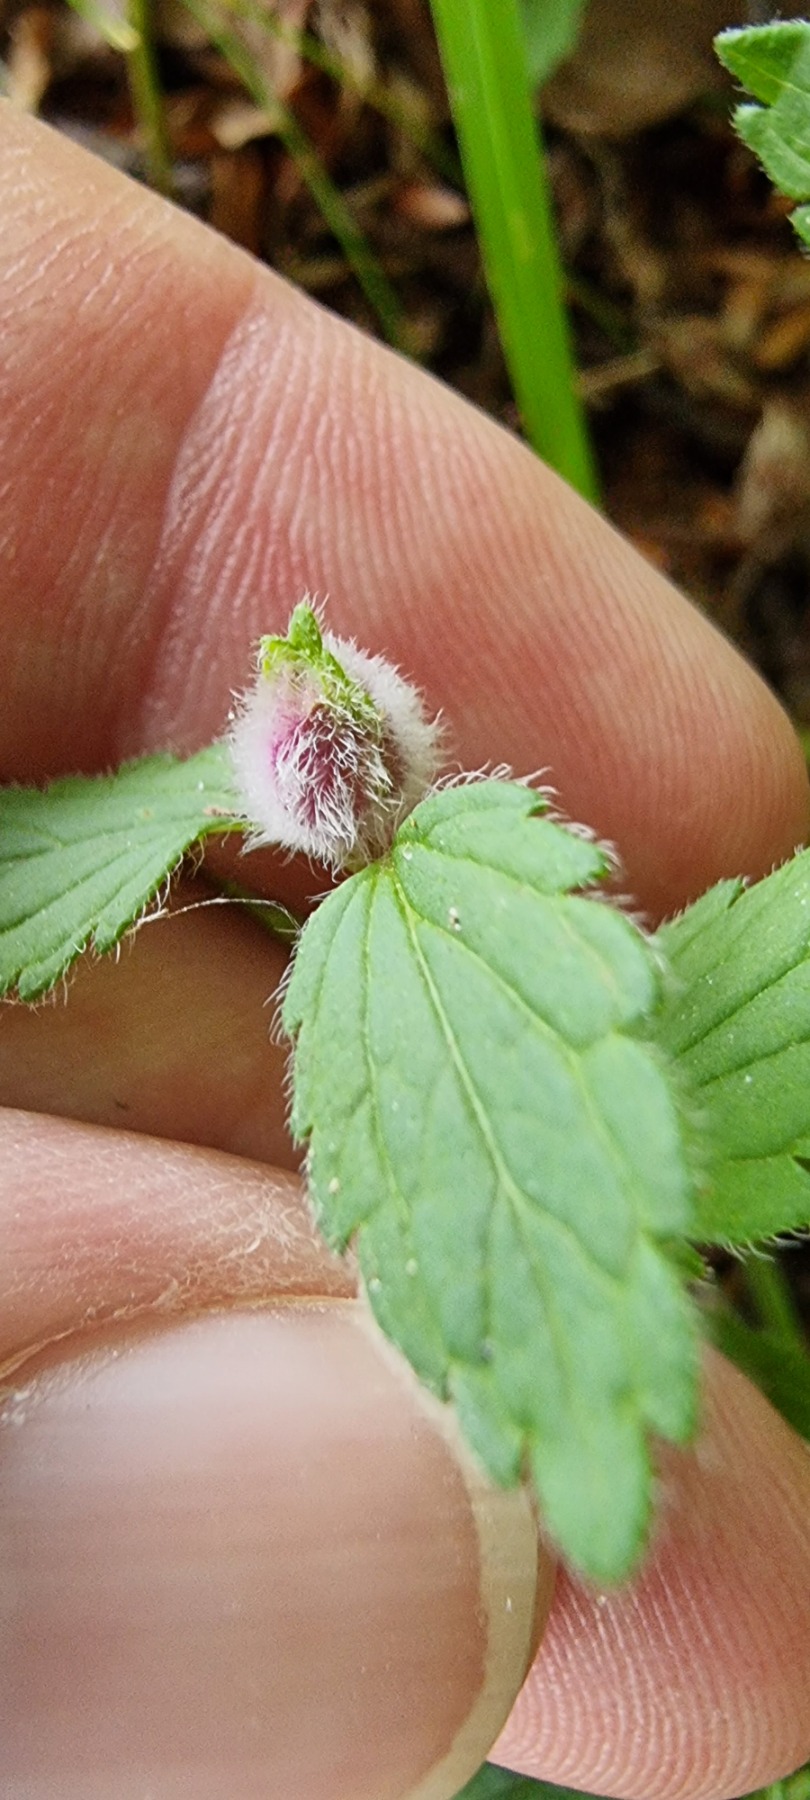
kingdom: Animalia
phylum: Arthropoda
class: Insecta
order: Diptera
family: Cecidomyiidae
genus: Jaapiella
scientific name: Jaapiella veronicae
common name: Ærenprisgalmyg
